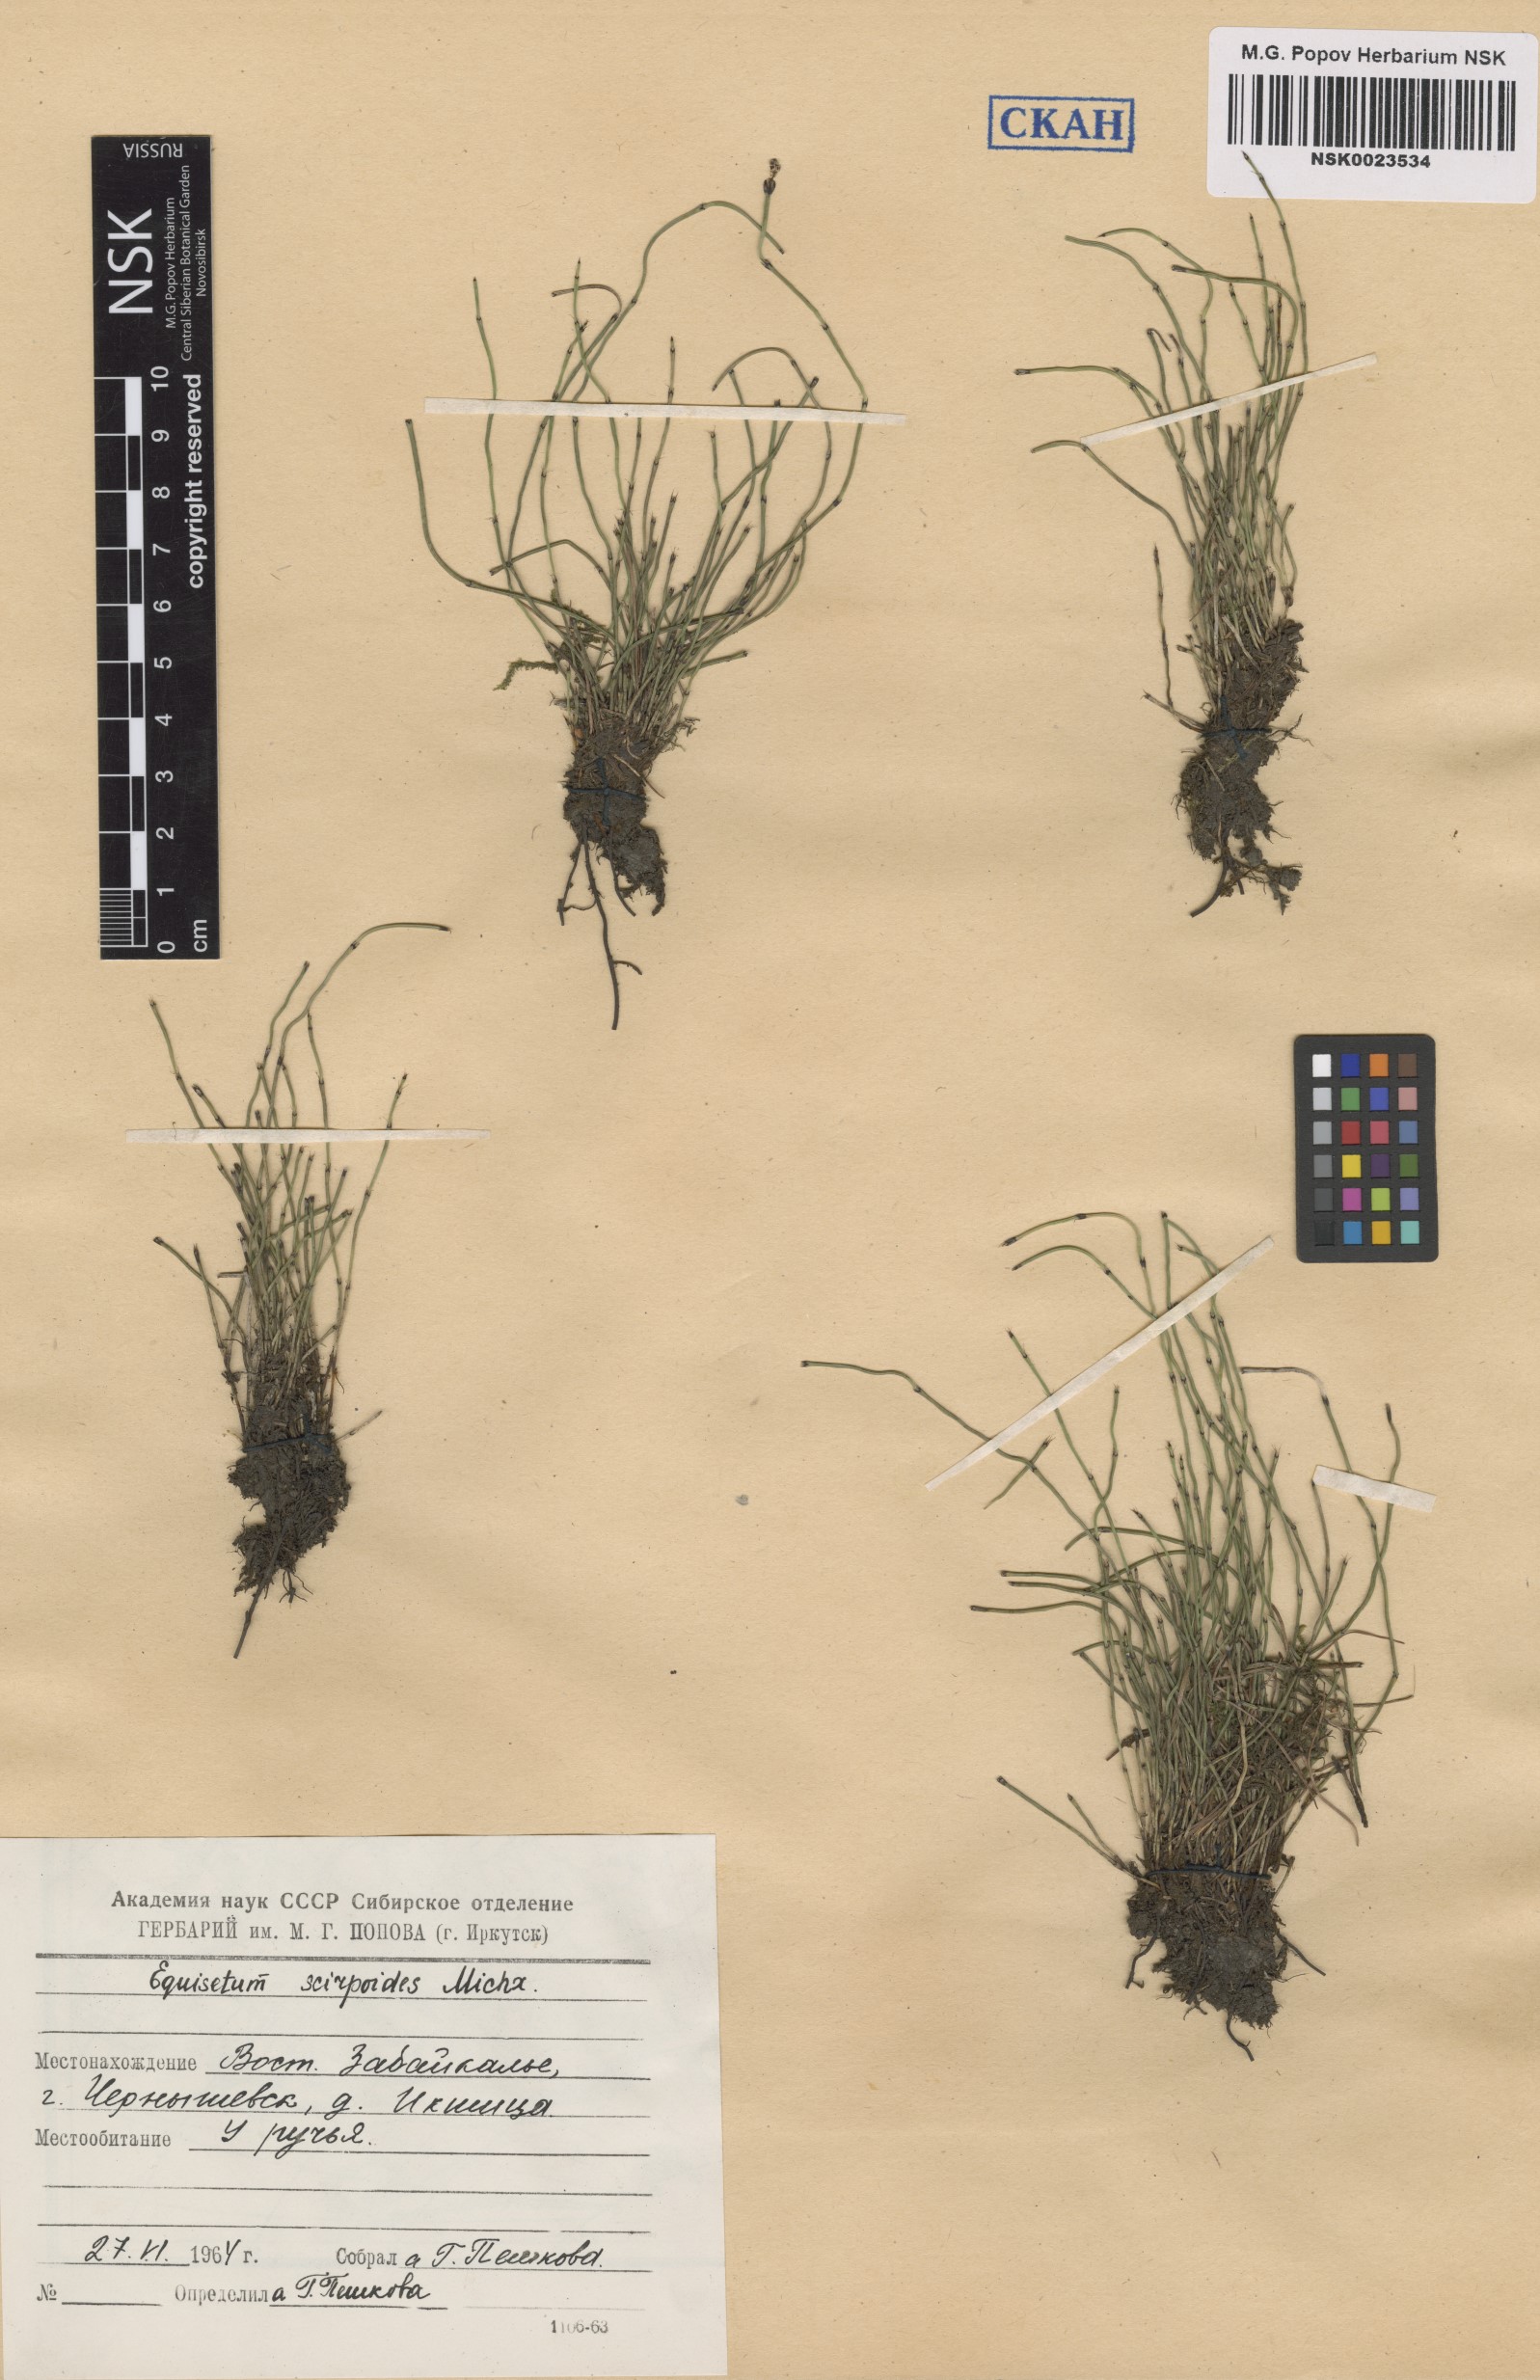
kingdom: Plantae
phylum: Tracheophyta
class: Polypodiopsida
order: Equisetales
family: Equisetaceae
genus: Equisetum
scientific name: Equisetum scirpoides
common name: Delicate horsetail
